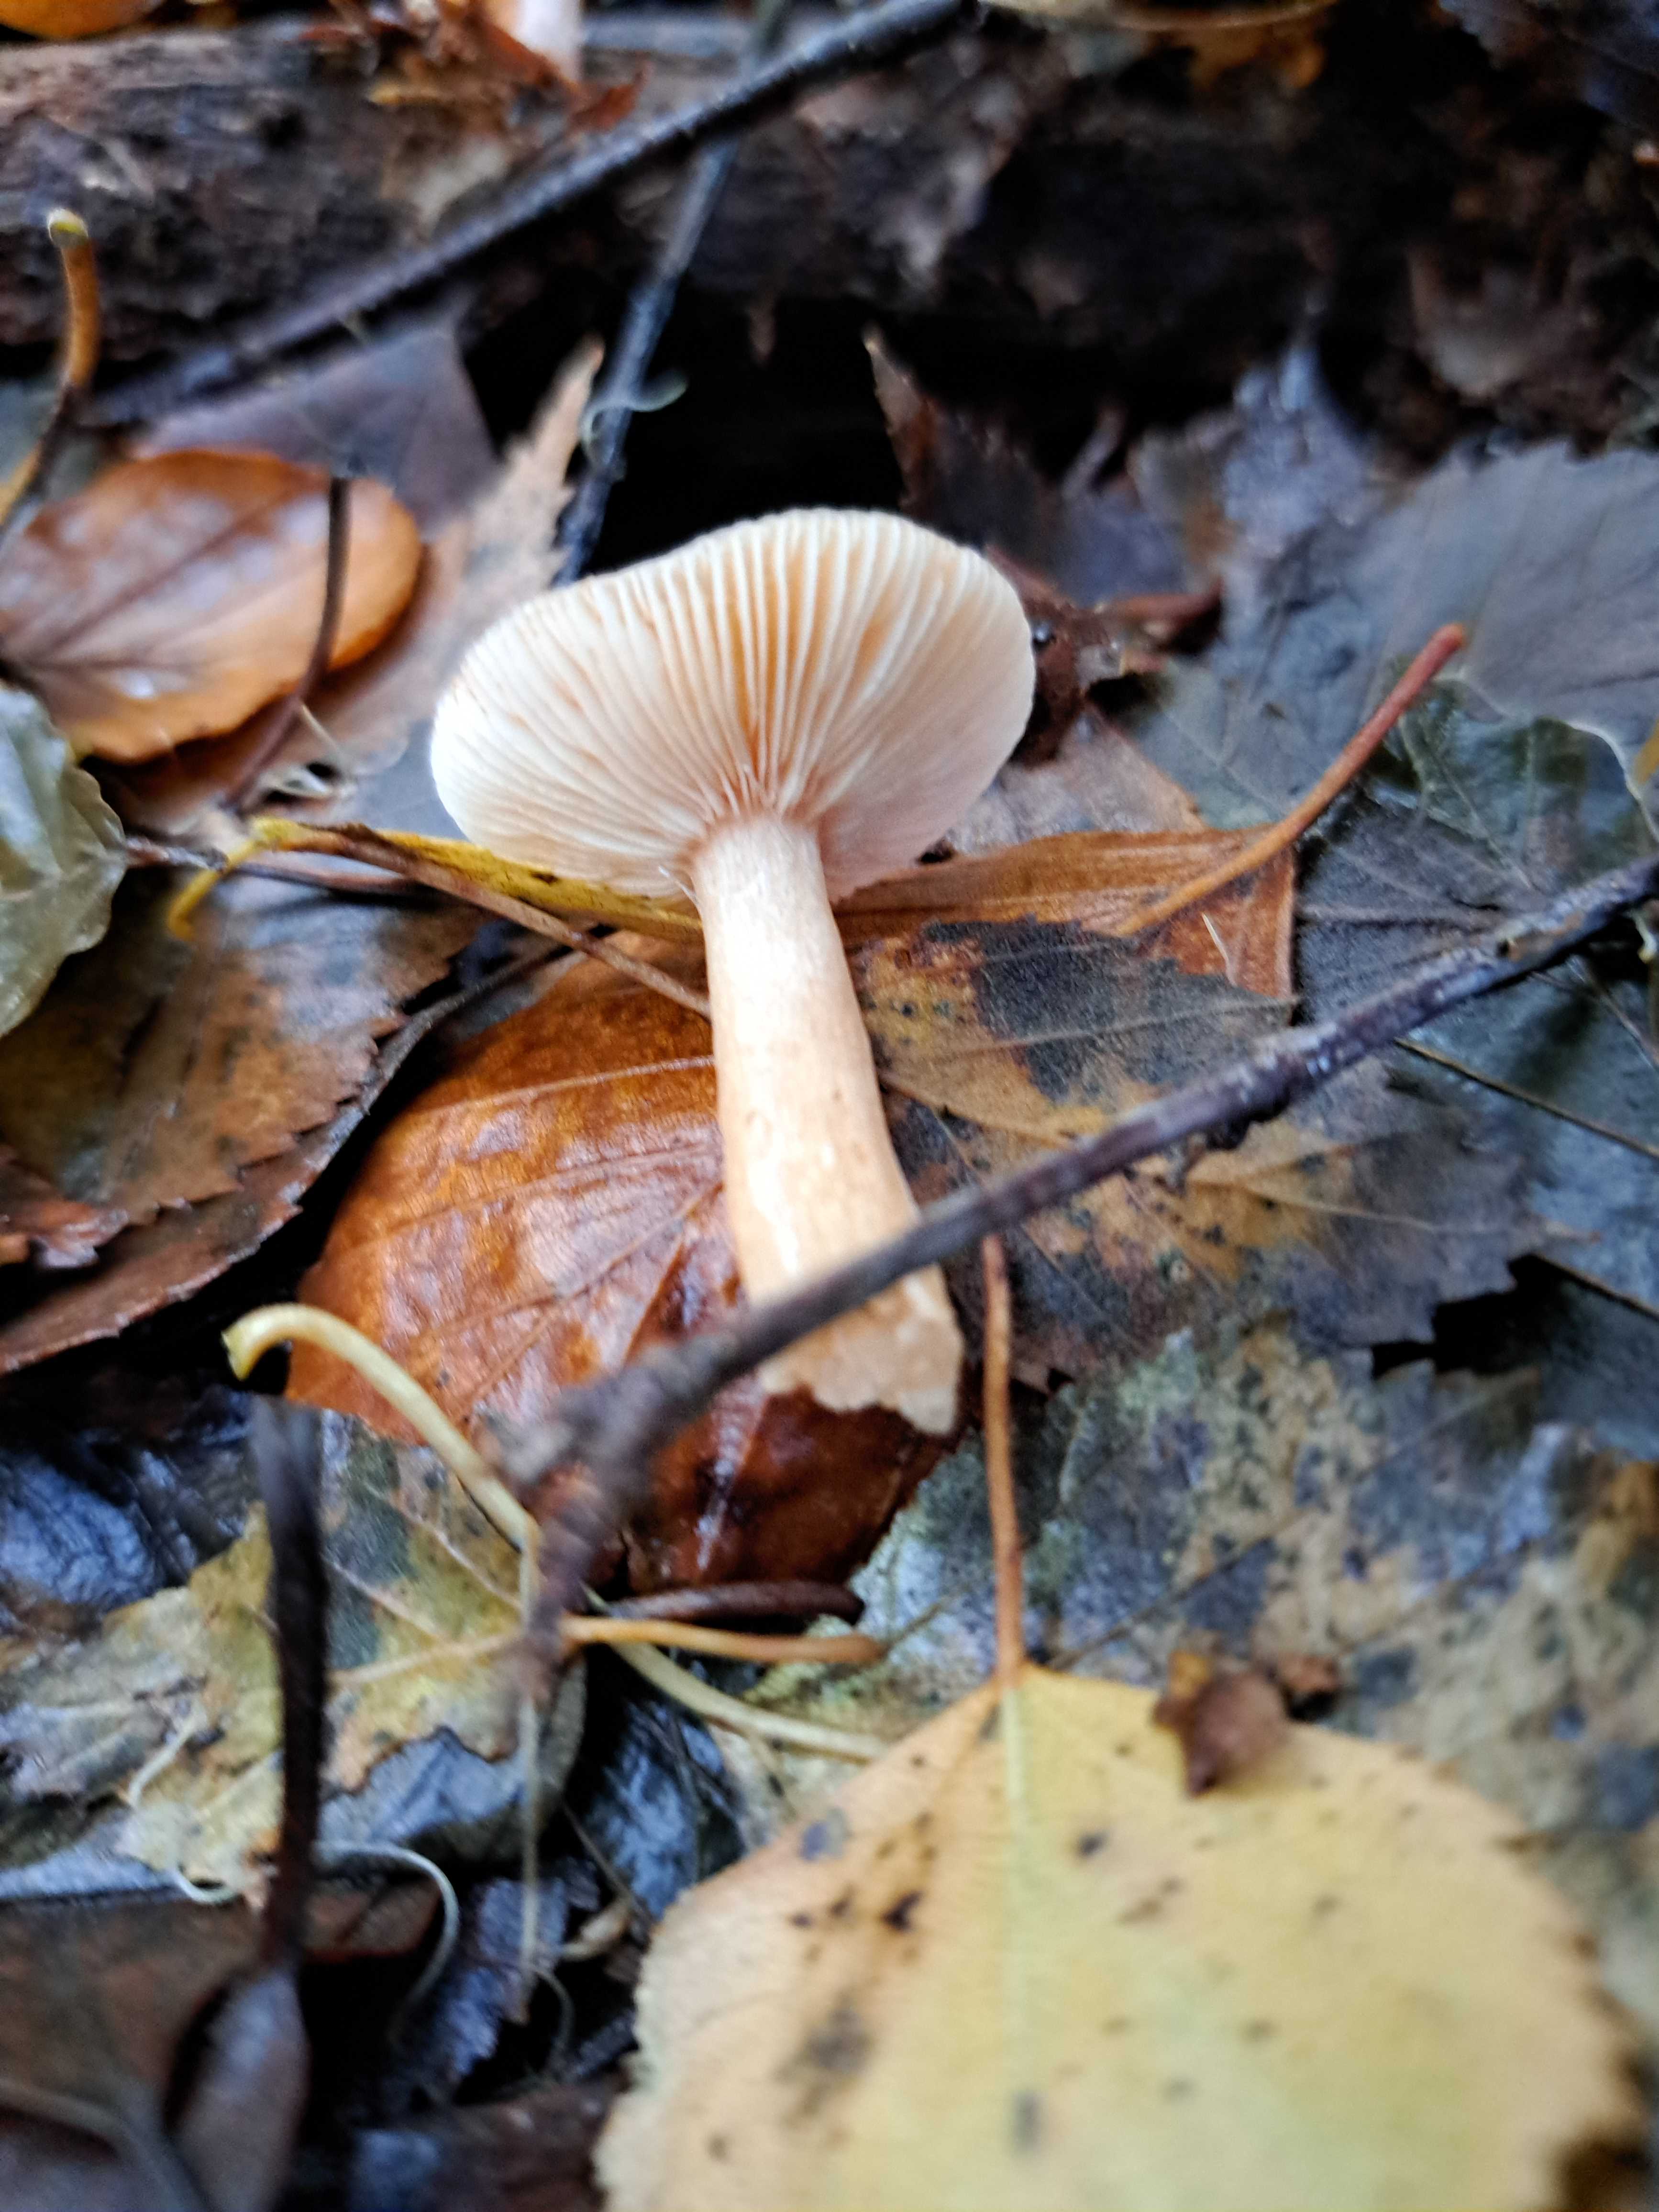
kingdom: Fungi
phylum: Basidiomycota
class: Agaricomycetes
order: Russulales
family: Russulaceae
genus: Lactarius
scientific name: Lactarius
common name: mælkehat
